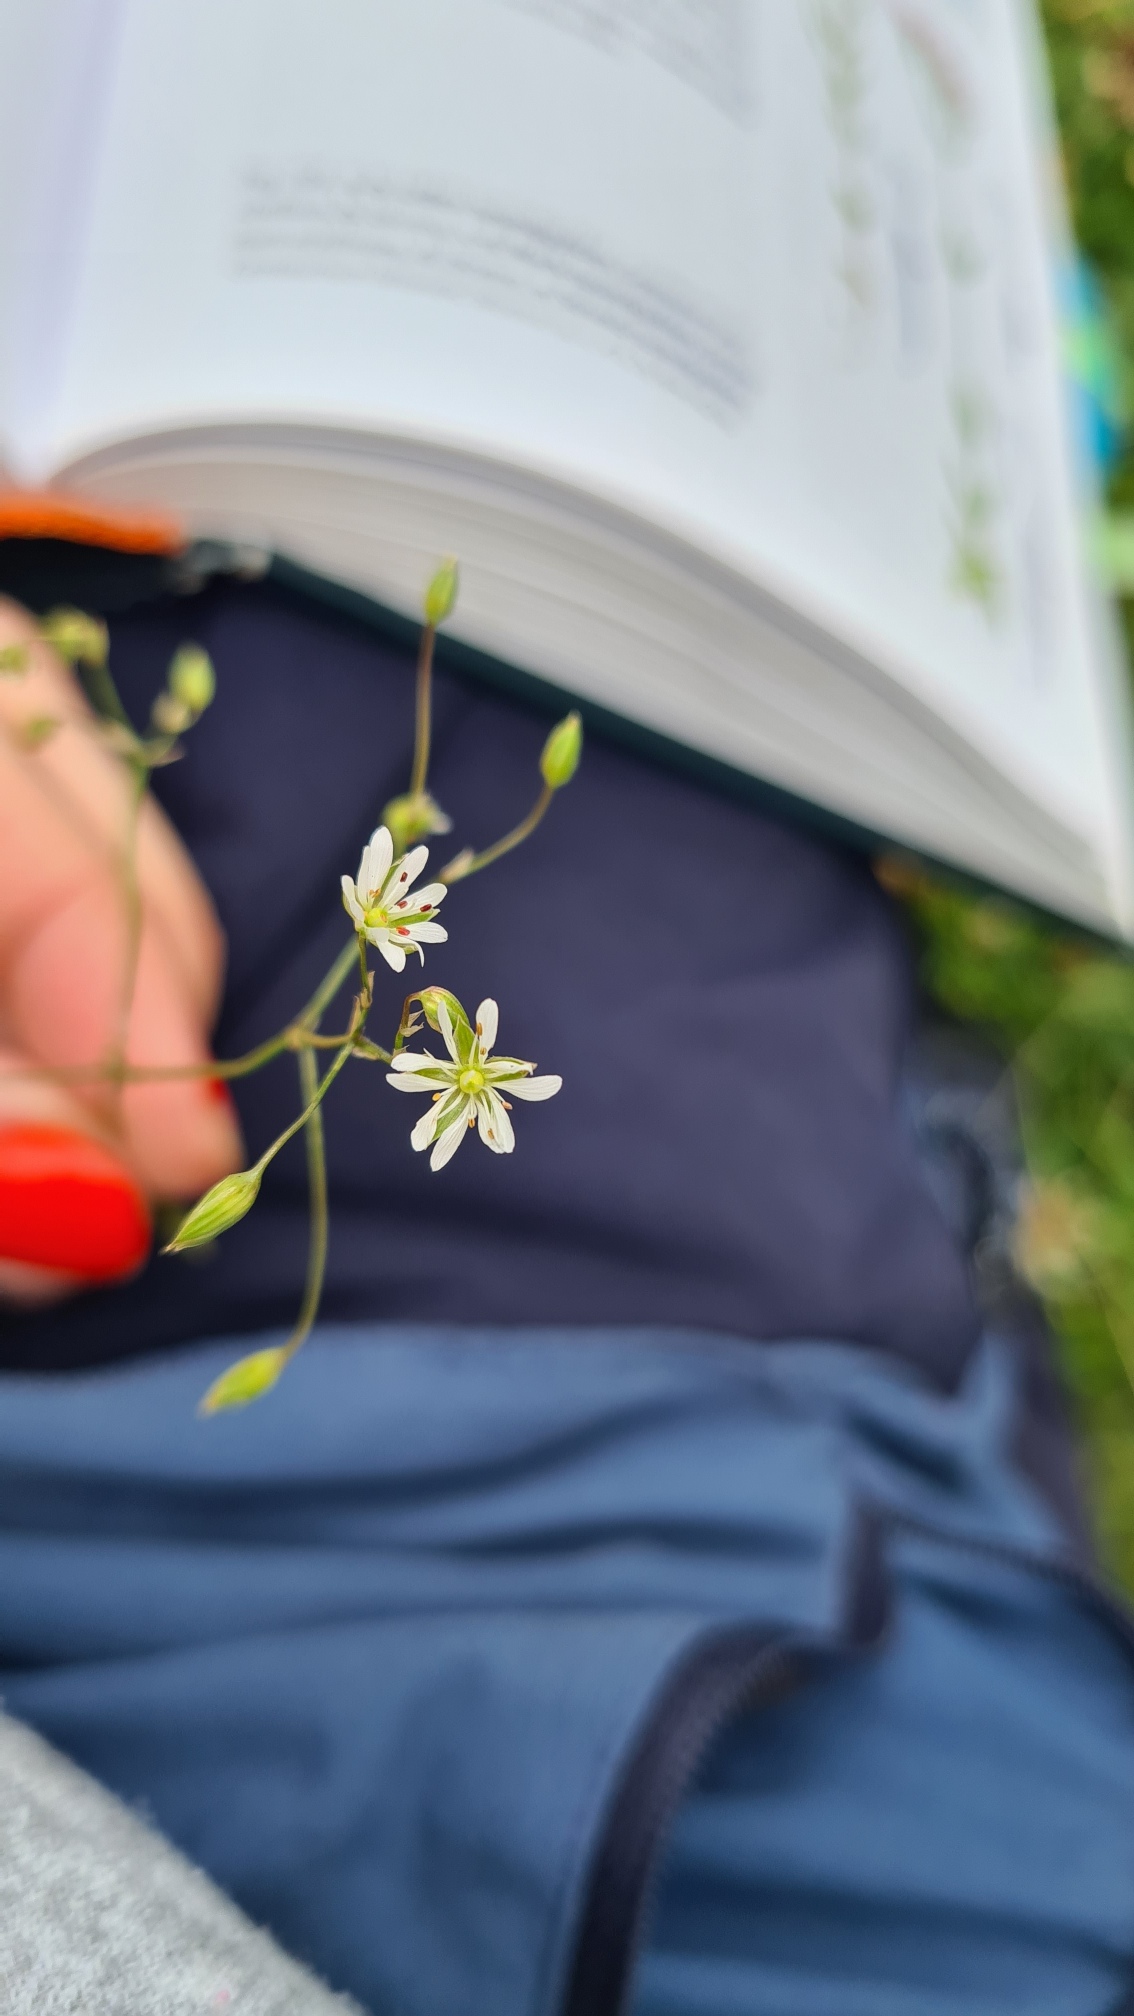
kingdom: Plantae
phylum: Tracheophyta
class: Magnoliopsida
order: Caryophyllales
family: Caryophyllaceae
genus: Stellaria
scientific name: Stellaria graminea
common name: Græsbladet fladstjerne
